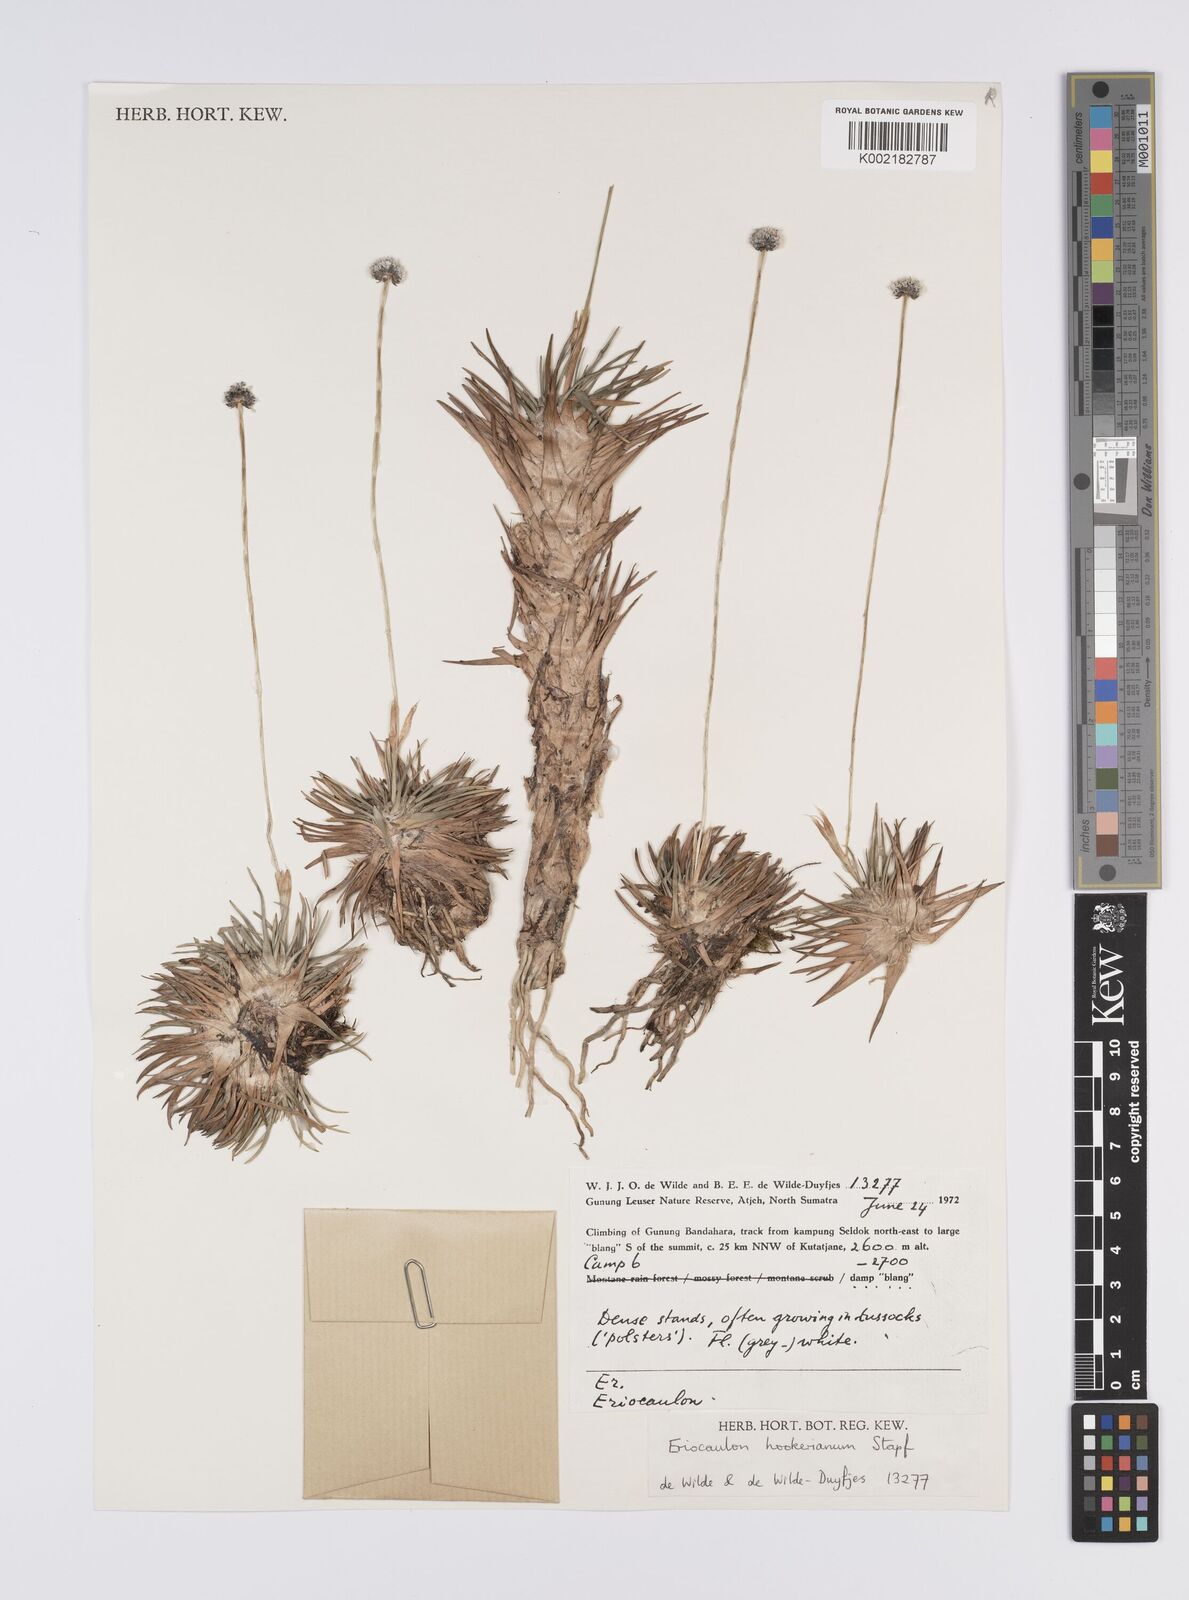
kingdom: Plantae
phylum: Tracheophyta
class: Liliopsida
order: Poales
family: Eriocaulaceae
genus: Eriocaulon
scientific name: Eriocaulon hookerianum
